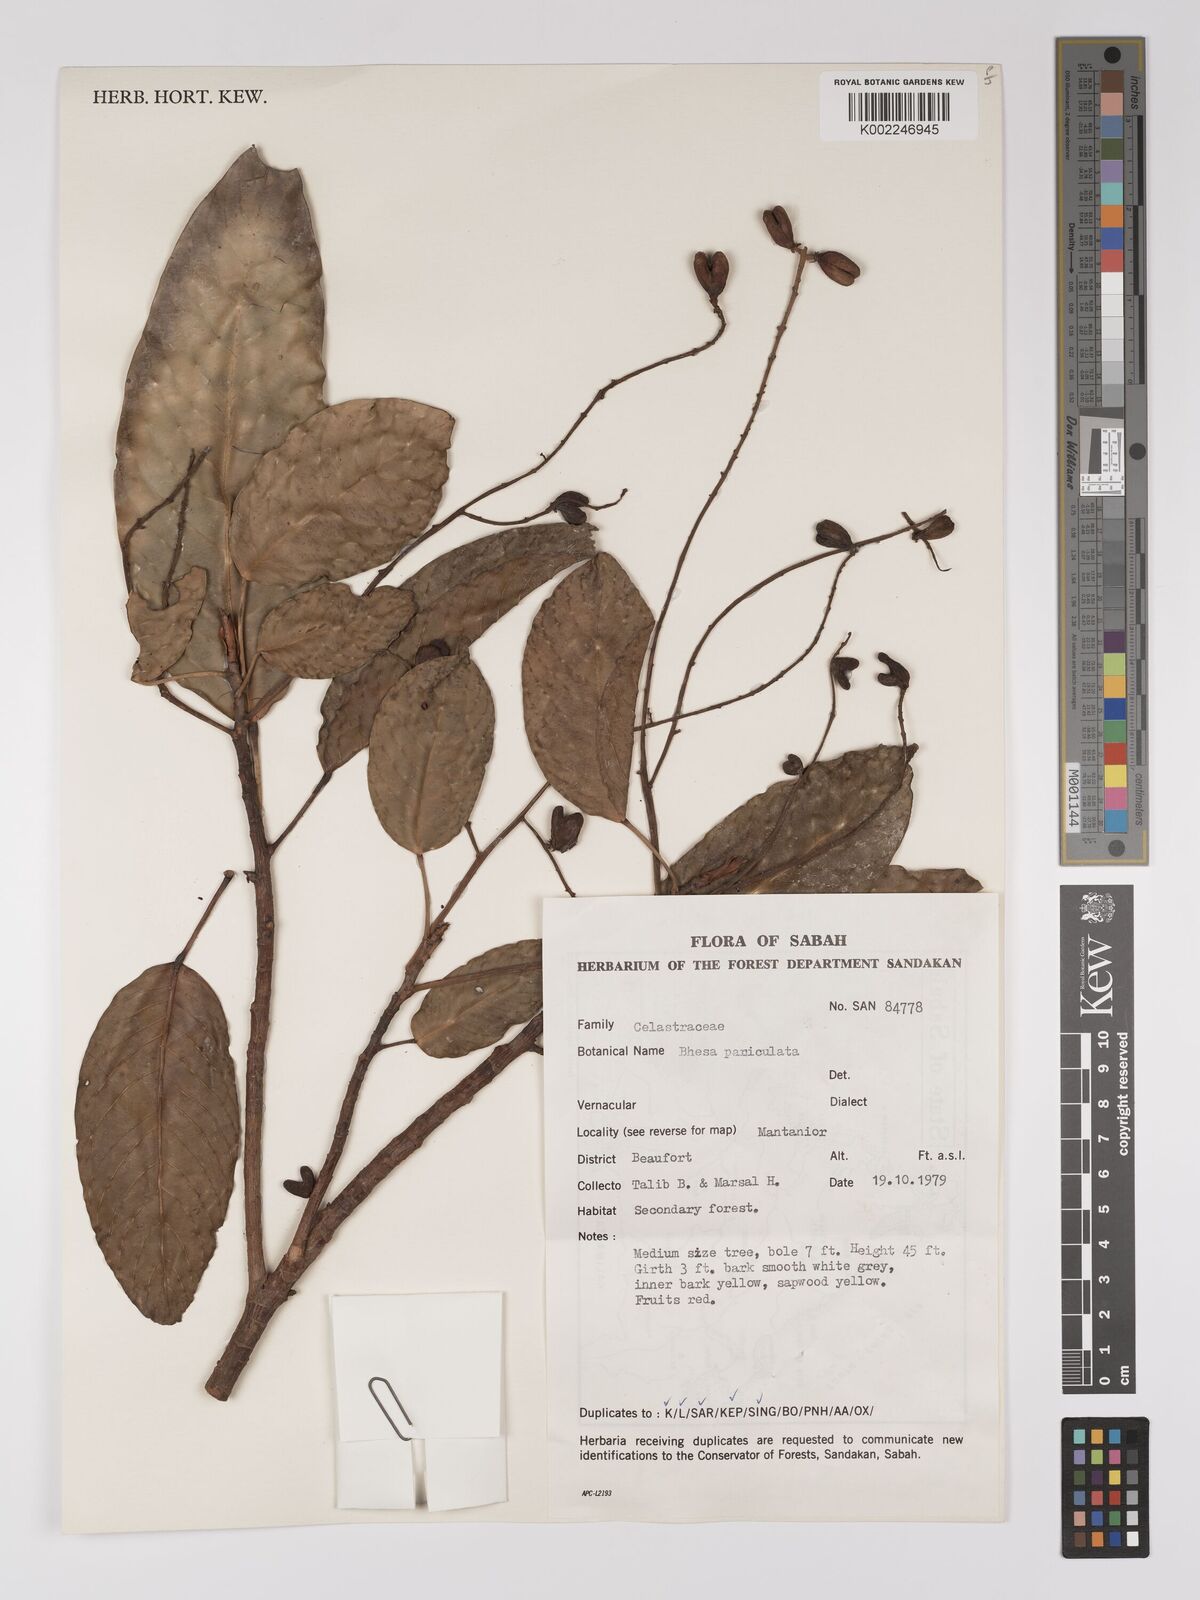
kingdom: Plantae
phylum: Tracheophyta
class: Magnoliopsida
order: Malpighiales
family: Centroplacaceae
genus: Bhesa
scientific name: Bhesa paniculata
